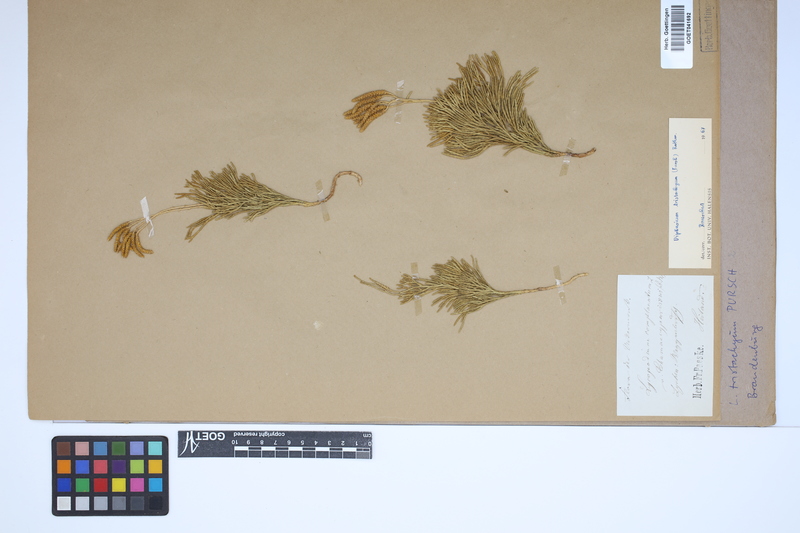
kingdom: Plantae
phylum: Tracheophyta
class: Lycopodiopsida
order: Lycopodiales
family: Lycopodiaceae
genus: Diphasiastrum
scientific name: Diphasiastrum tristachyum
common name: Blue ground-cedar
